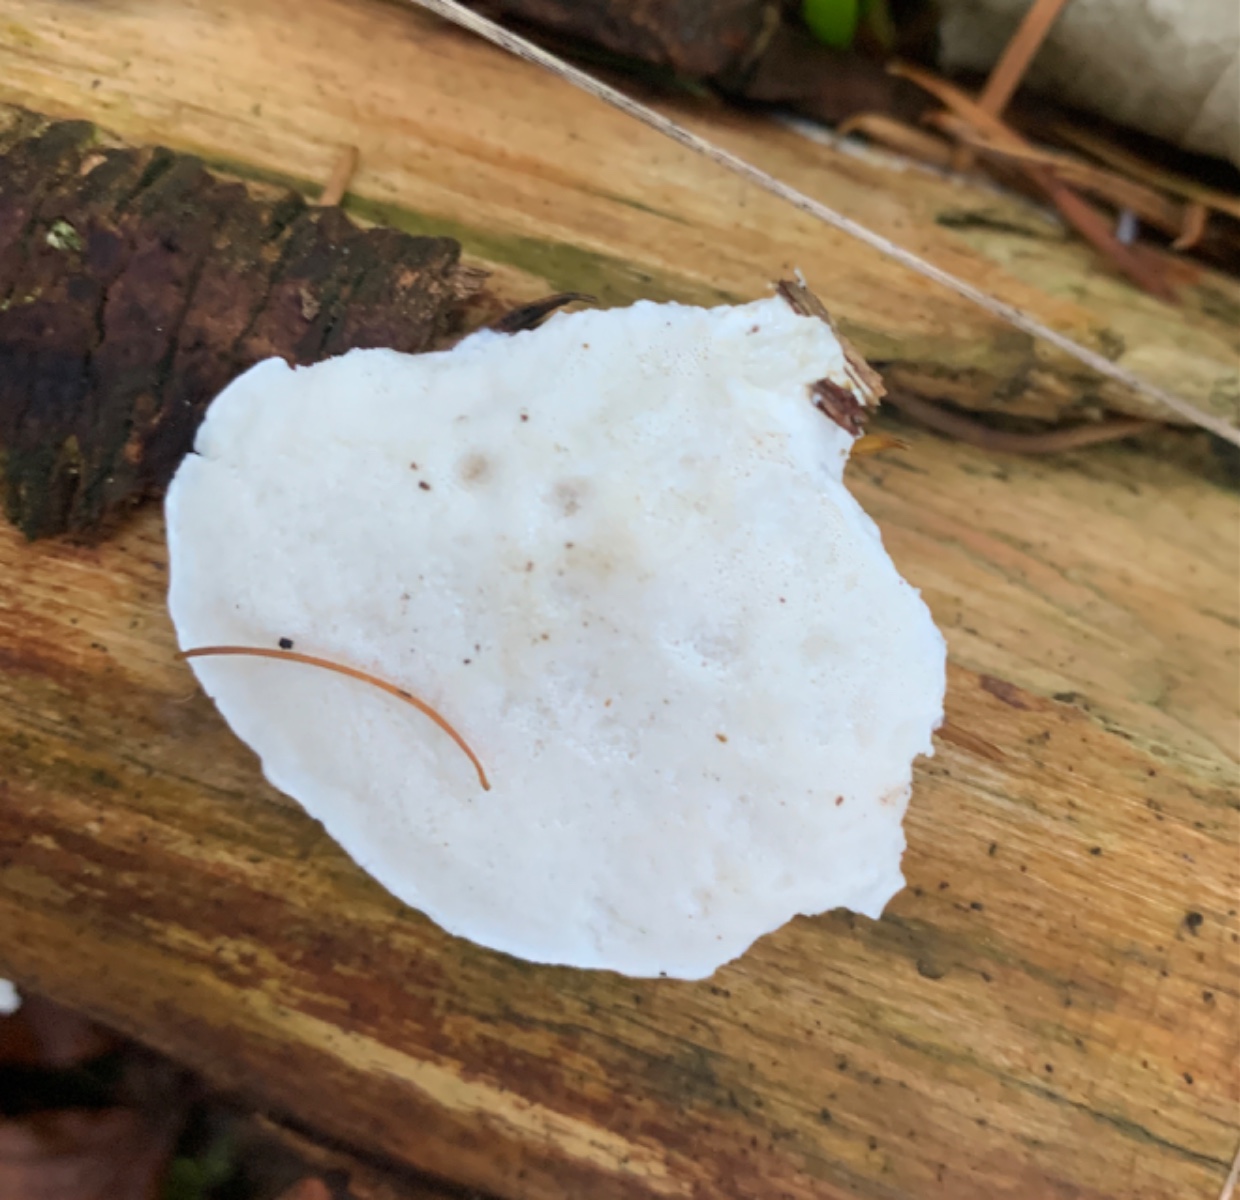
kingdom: Fungi
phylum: Basidiomycota
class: Agaricomycetes
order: Polyporales
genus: Amaropostia
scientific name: Amaropostia stiptica
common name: bitter kødporesvamp
